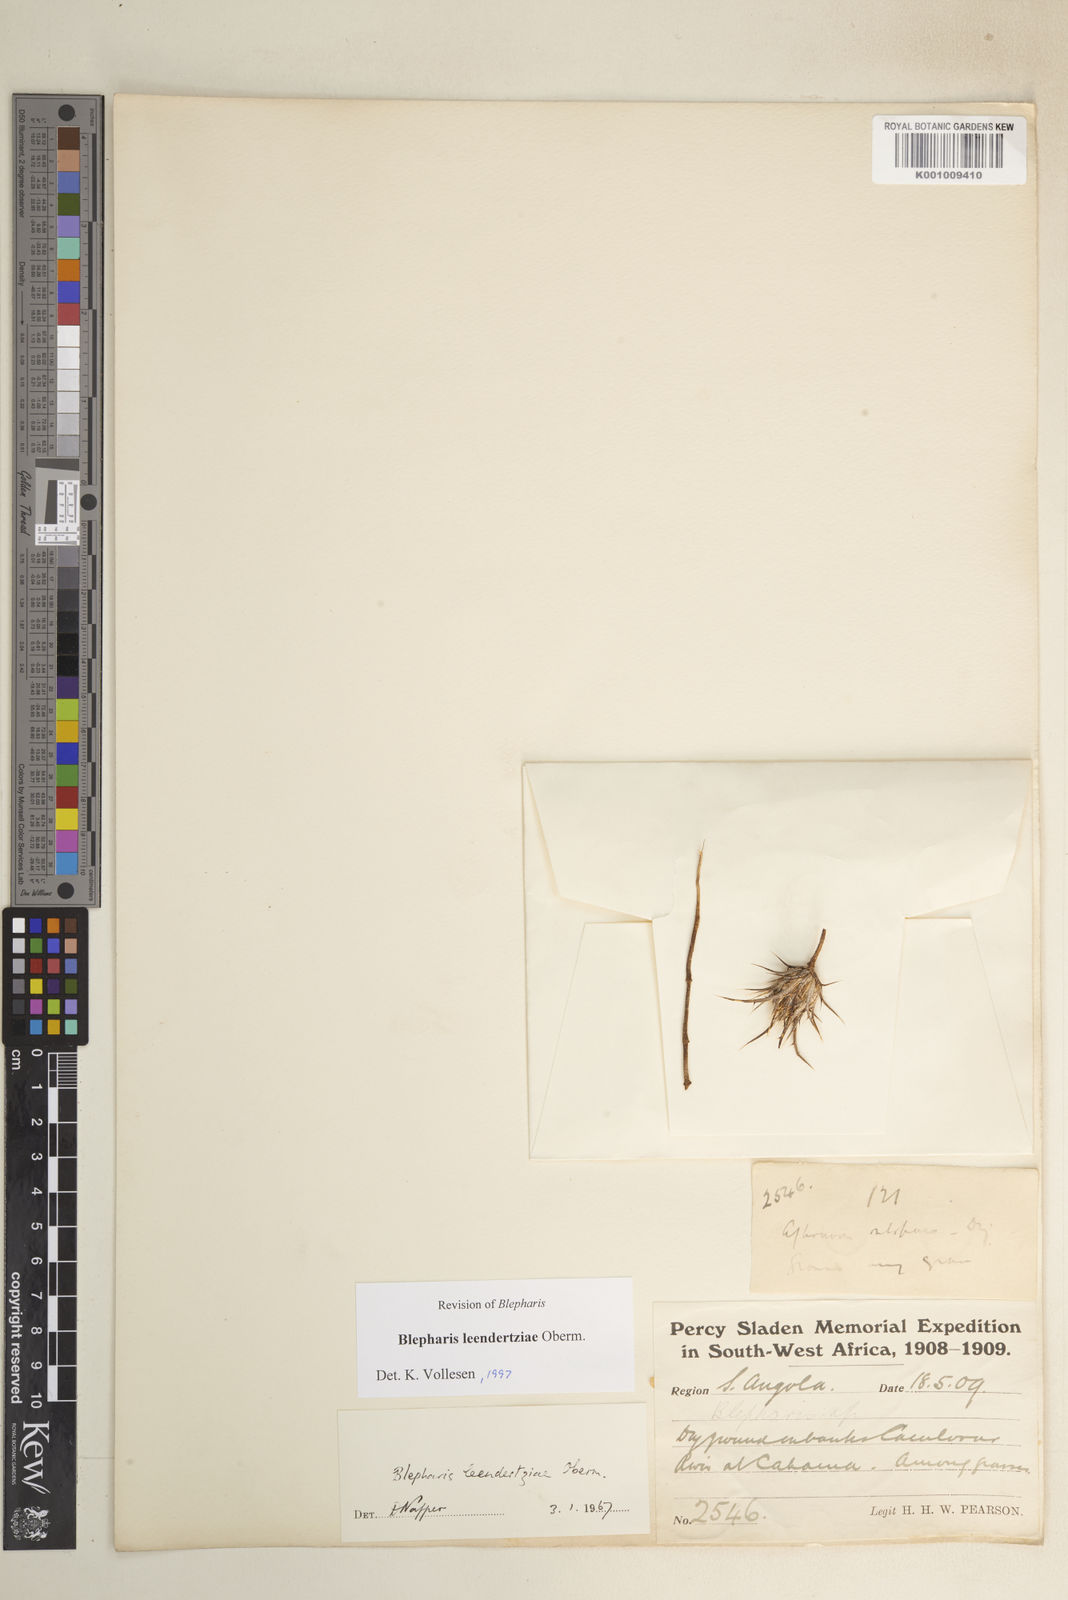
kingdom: Plantae
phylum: Tracheophyta
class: Magnoliopsida
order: Lamiales
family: Acanthaceae
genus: Blepharis
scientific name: Blepharis leendertziae
